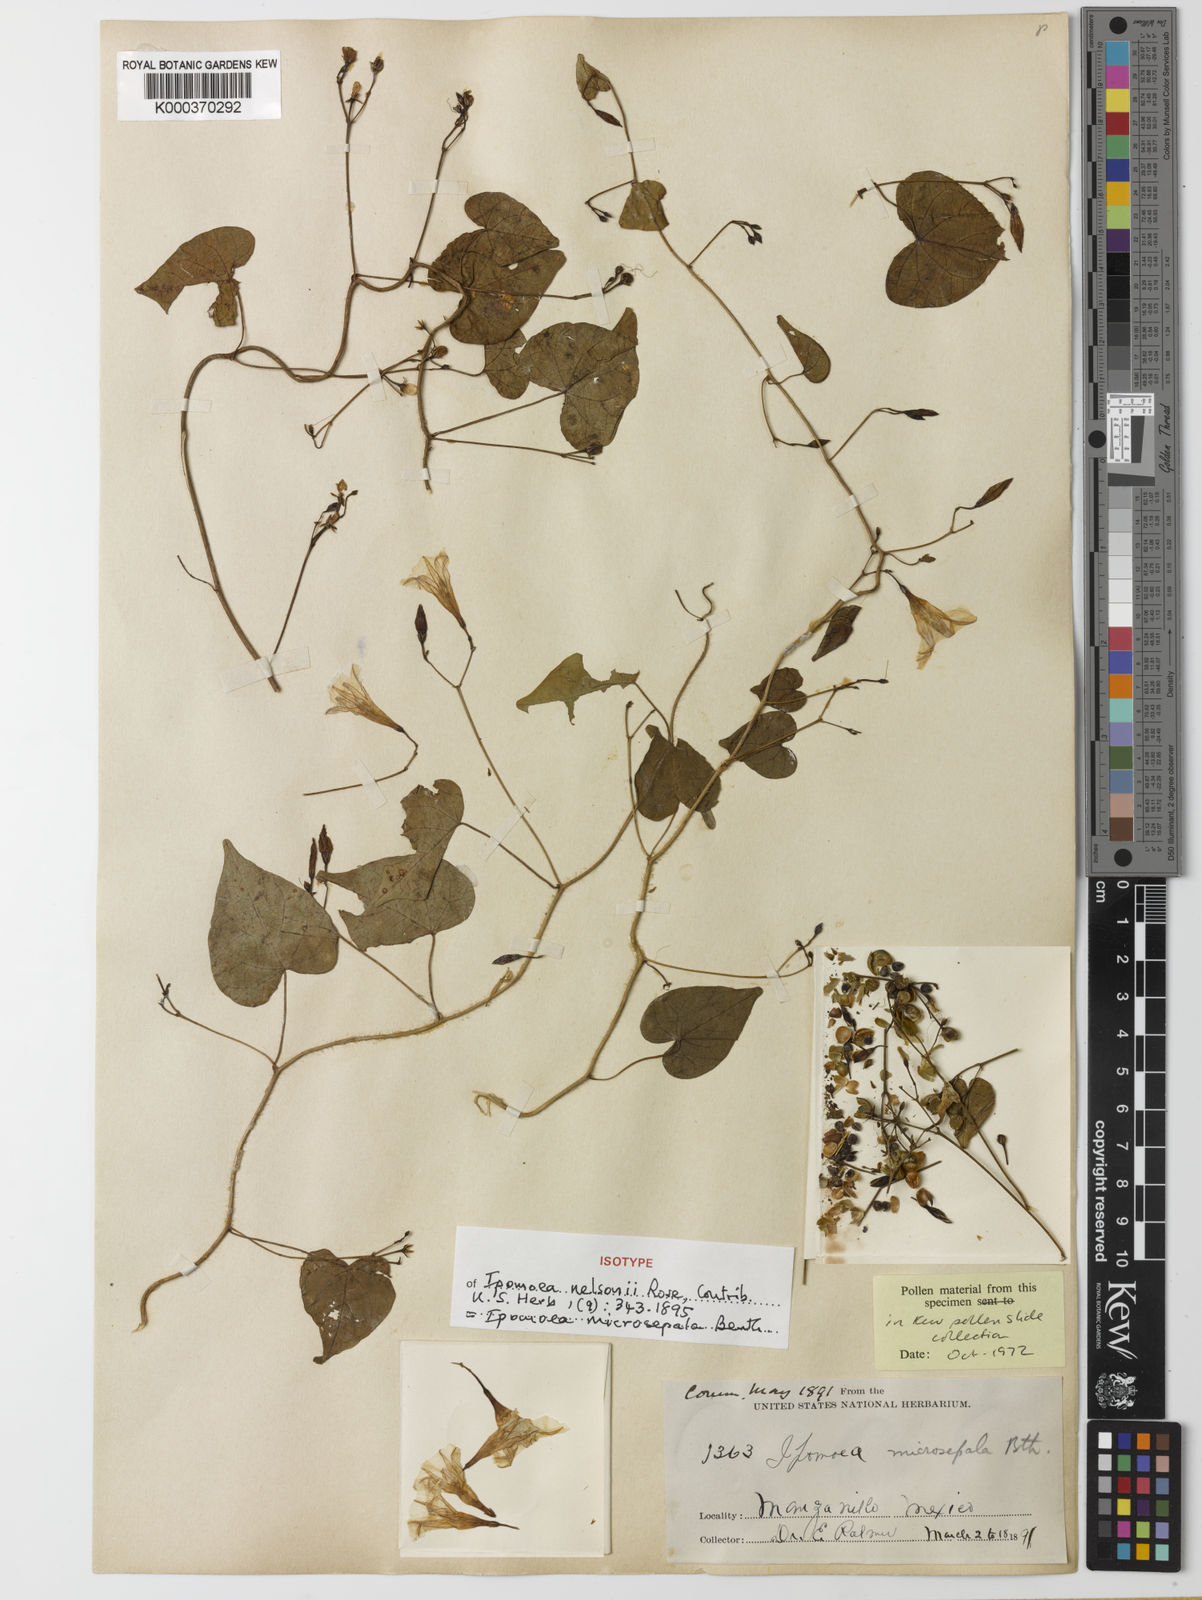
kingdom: Plantae
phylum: Tracheophyta
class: Magnoliopsida
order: Solanales
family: Convolvulaceae
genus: Ipomoea
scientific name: Ipomoea microsepala
